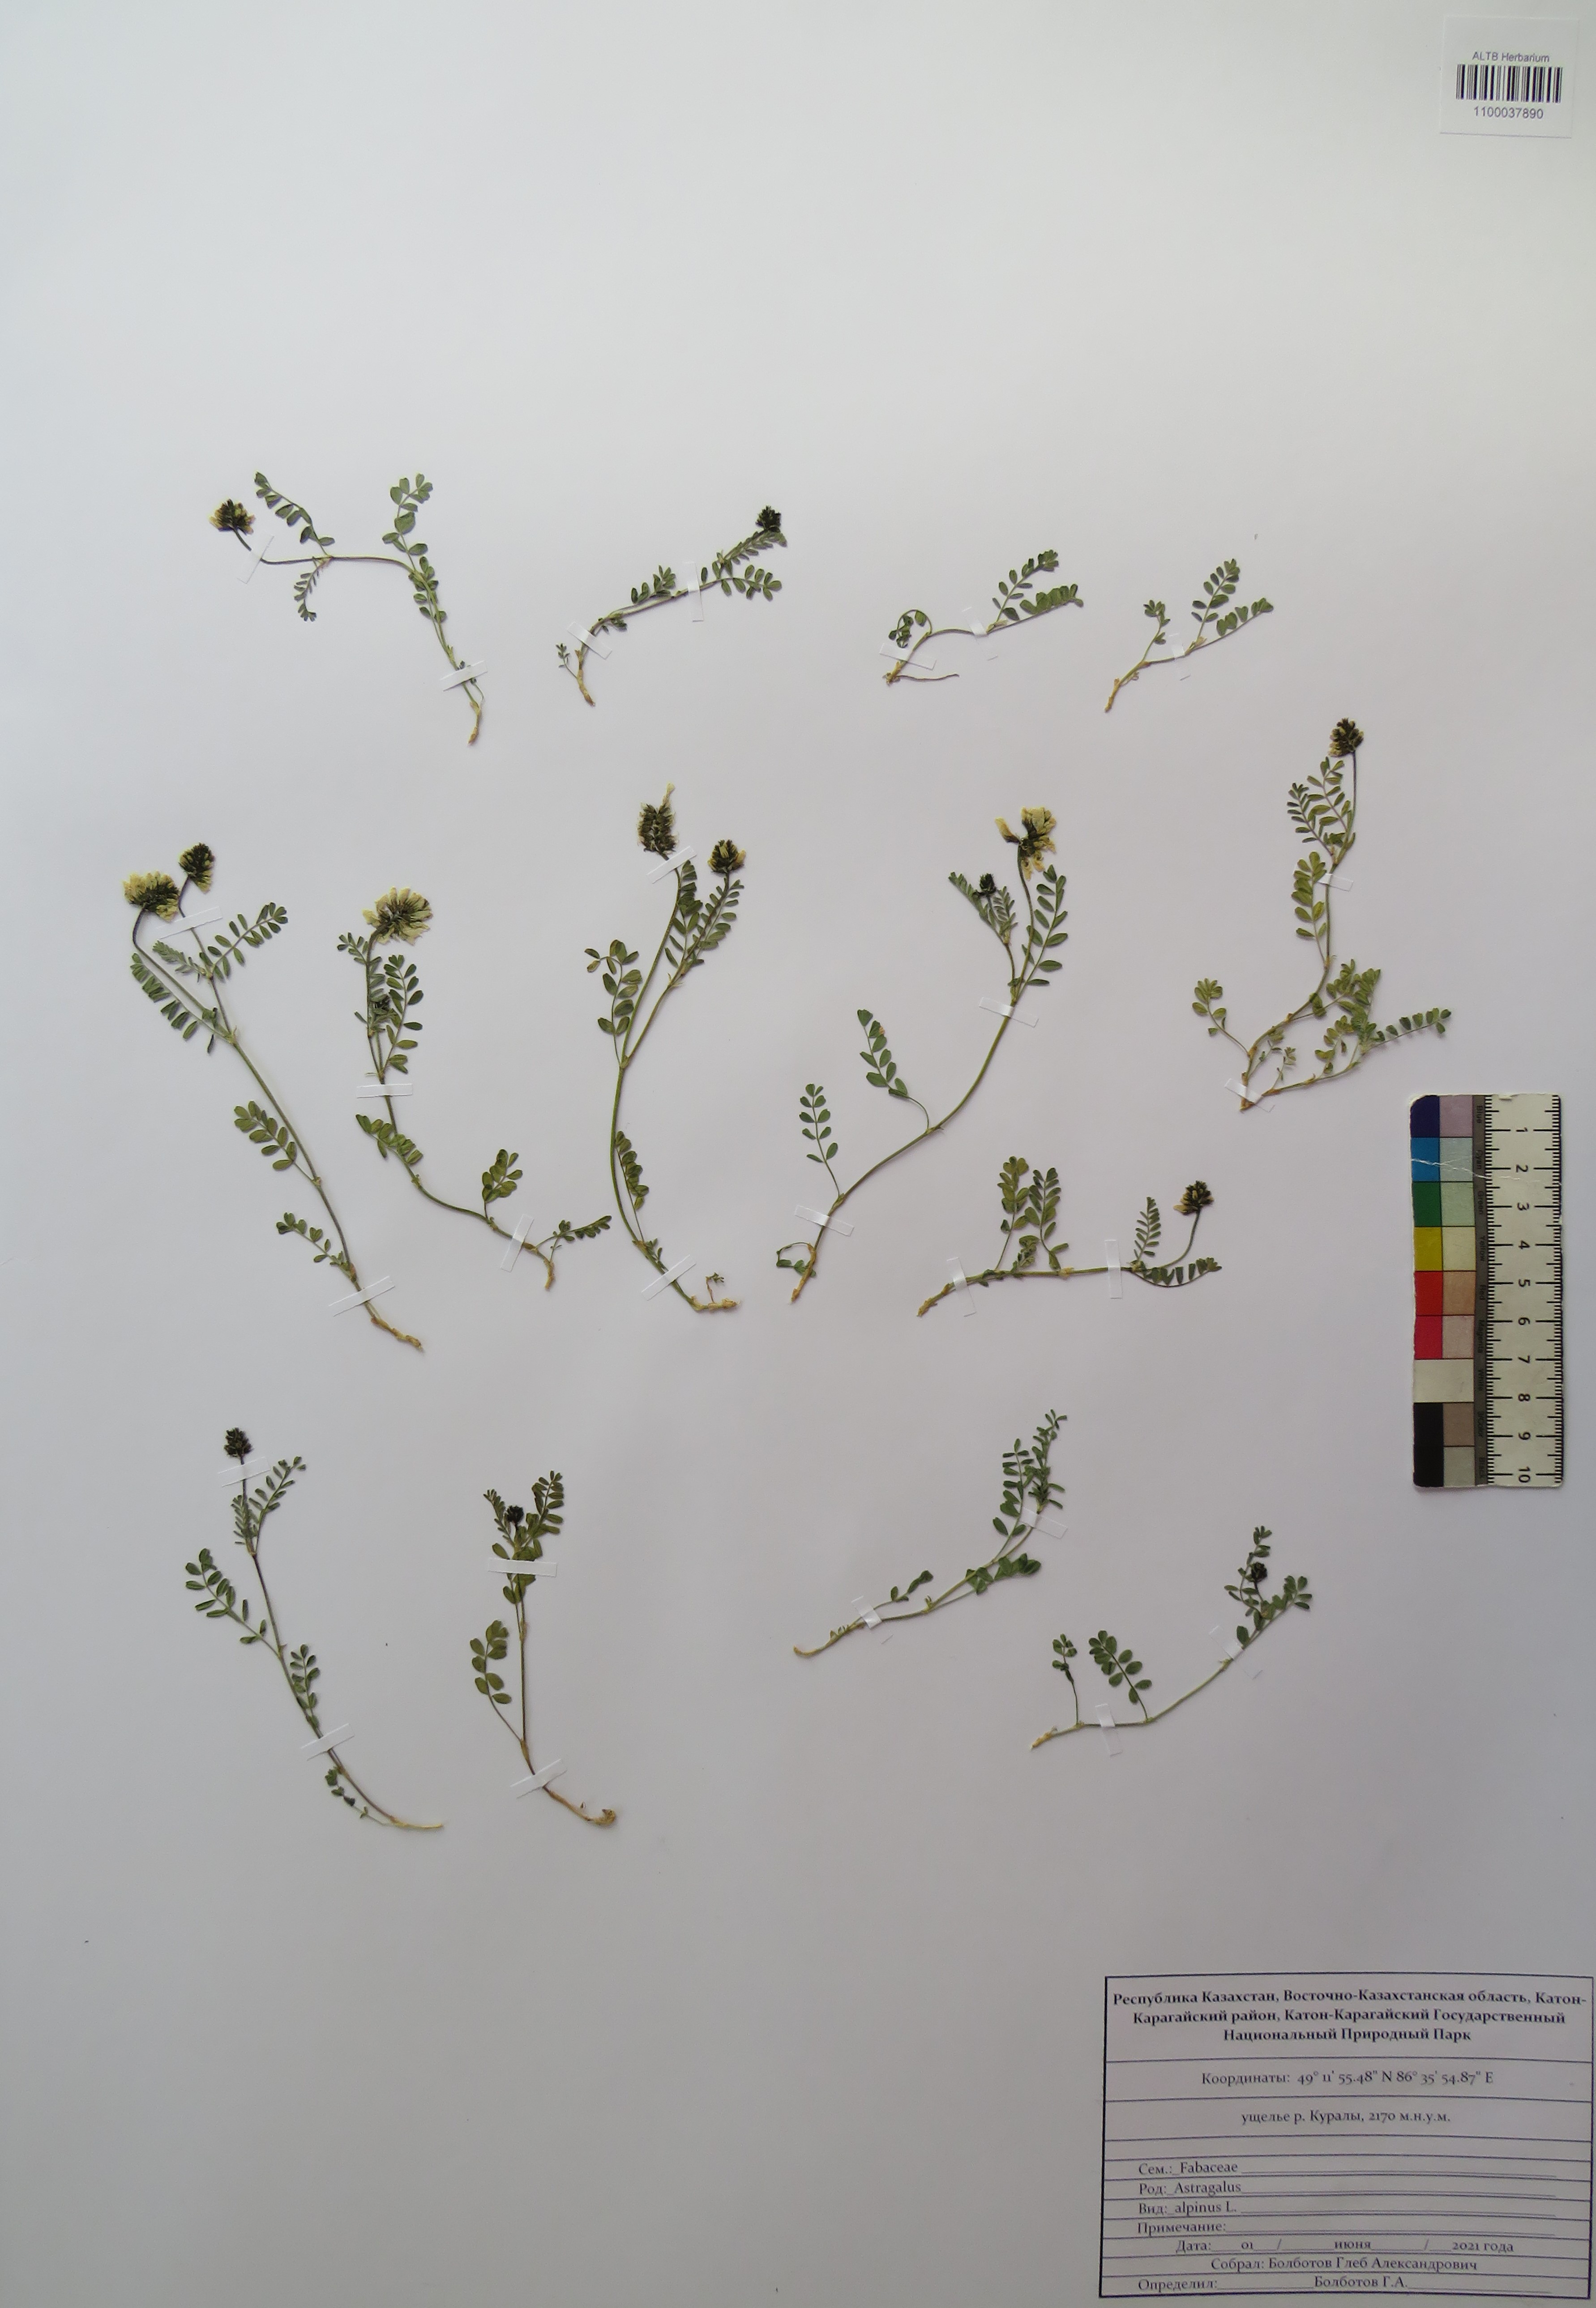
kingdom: Plantae
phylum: Tracheophyta
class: Magnoliopsida
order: Fabales
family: Fabaceae
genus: Astragalus
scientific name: Astragalus alpinus
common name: Alpine milk-vetch
